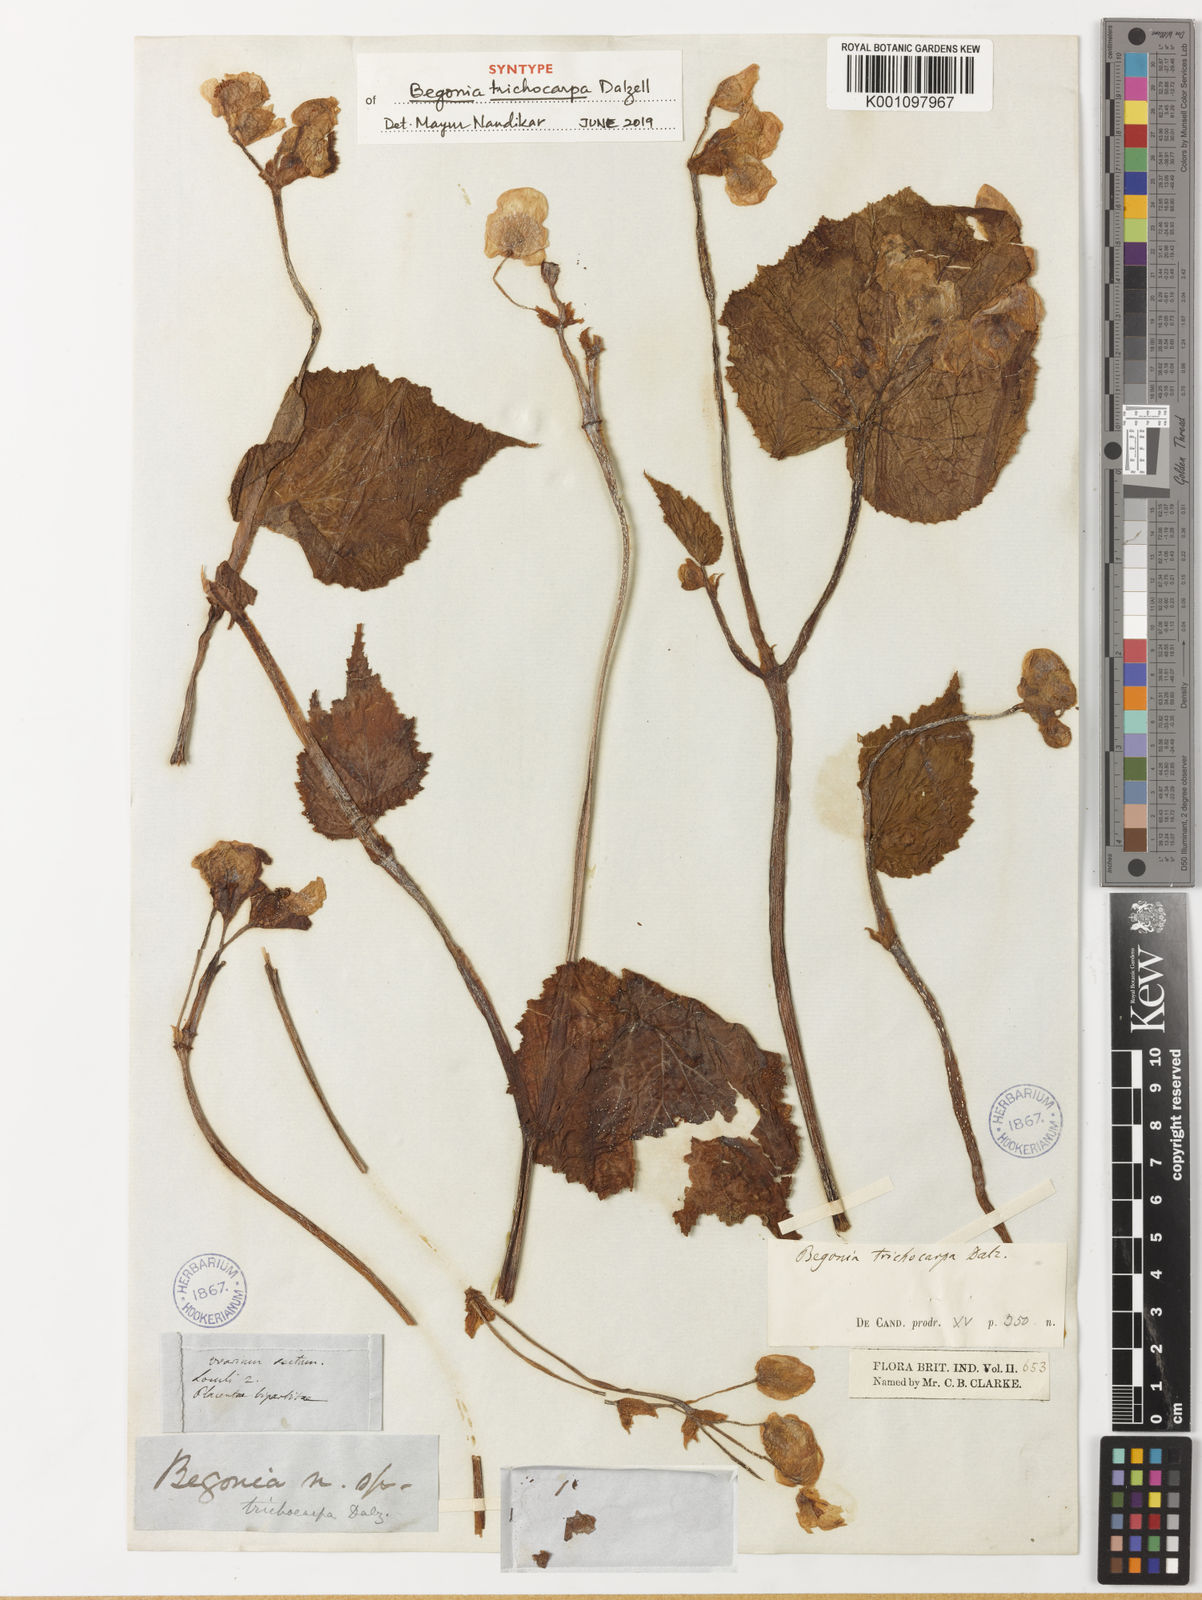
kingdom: Plantae
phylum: Tracheophyta
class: Magnoliopsida
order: Cucurbitales
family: Begoniaceae
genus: Begonia
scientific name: Begonia trichocarpa
